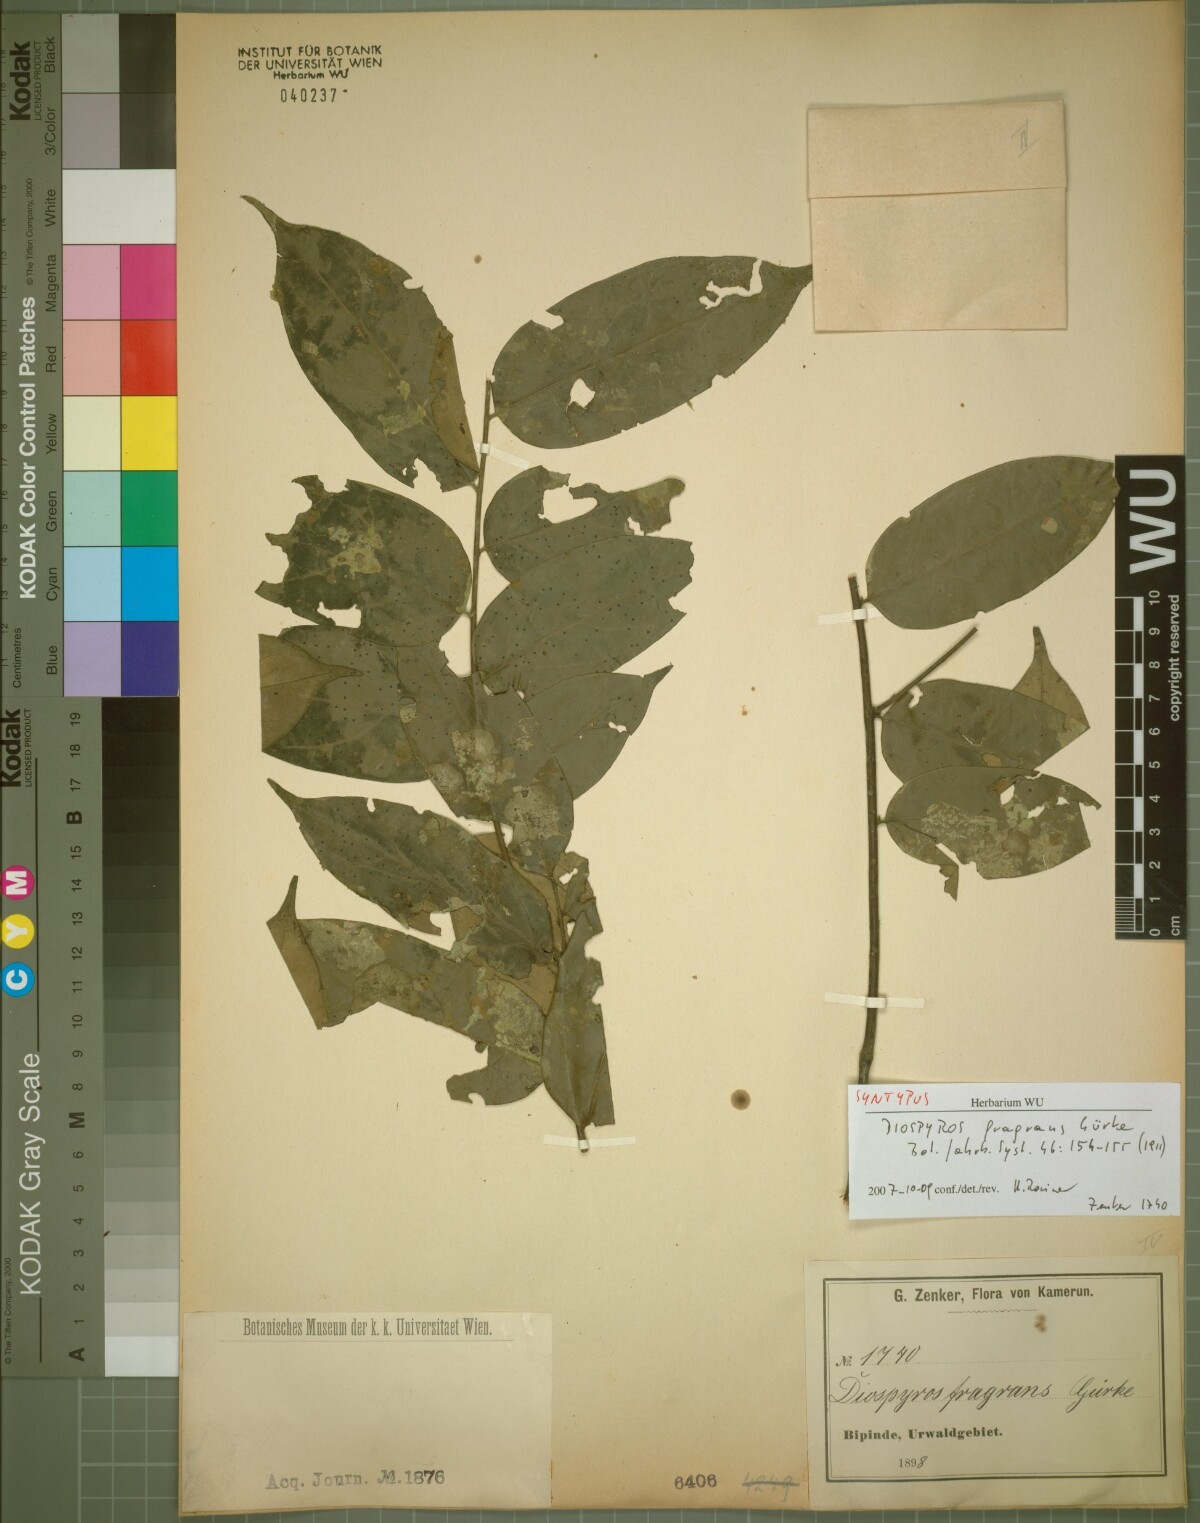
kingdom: Plantae
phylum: Tracheophyta
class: Magnoliopsida
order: Ericales
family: Ebenaceae
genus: Diospyros
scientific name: Diospyros fragrans
